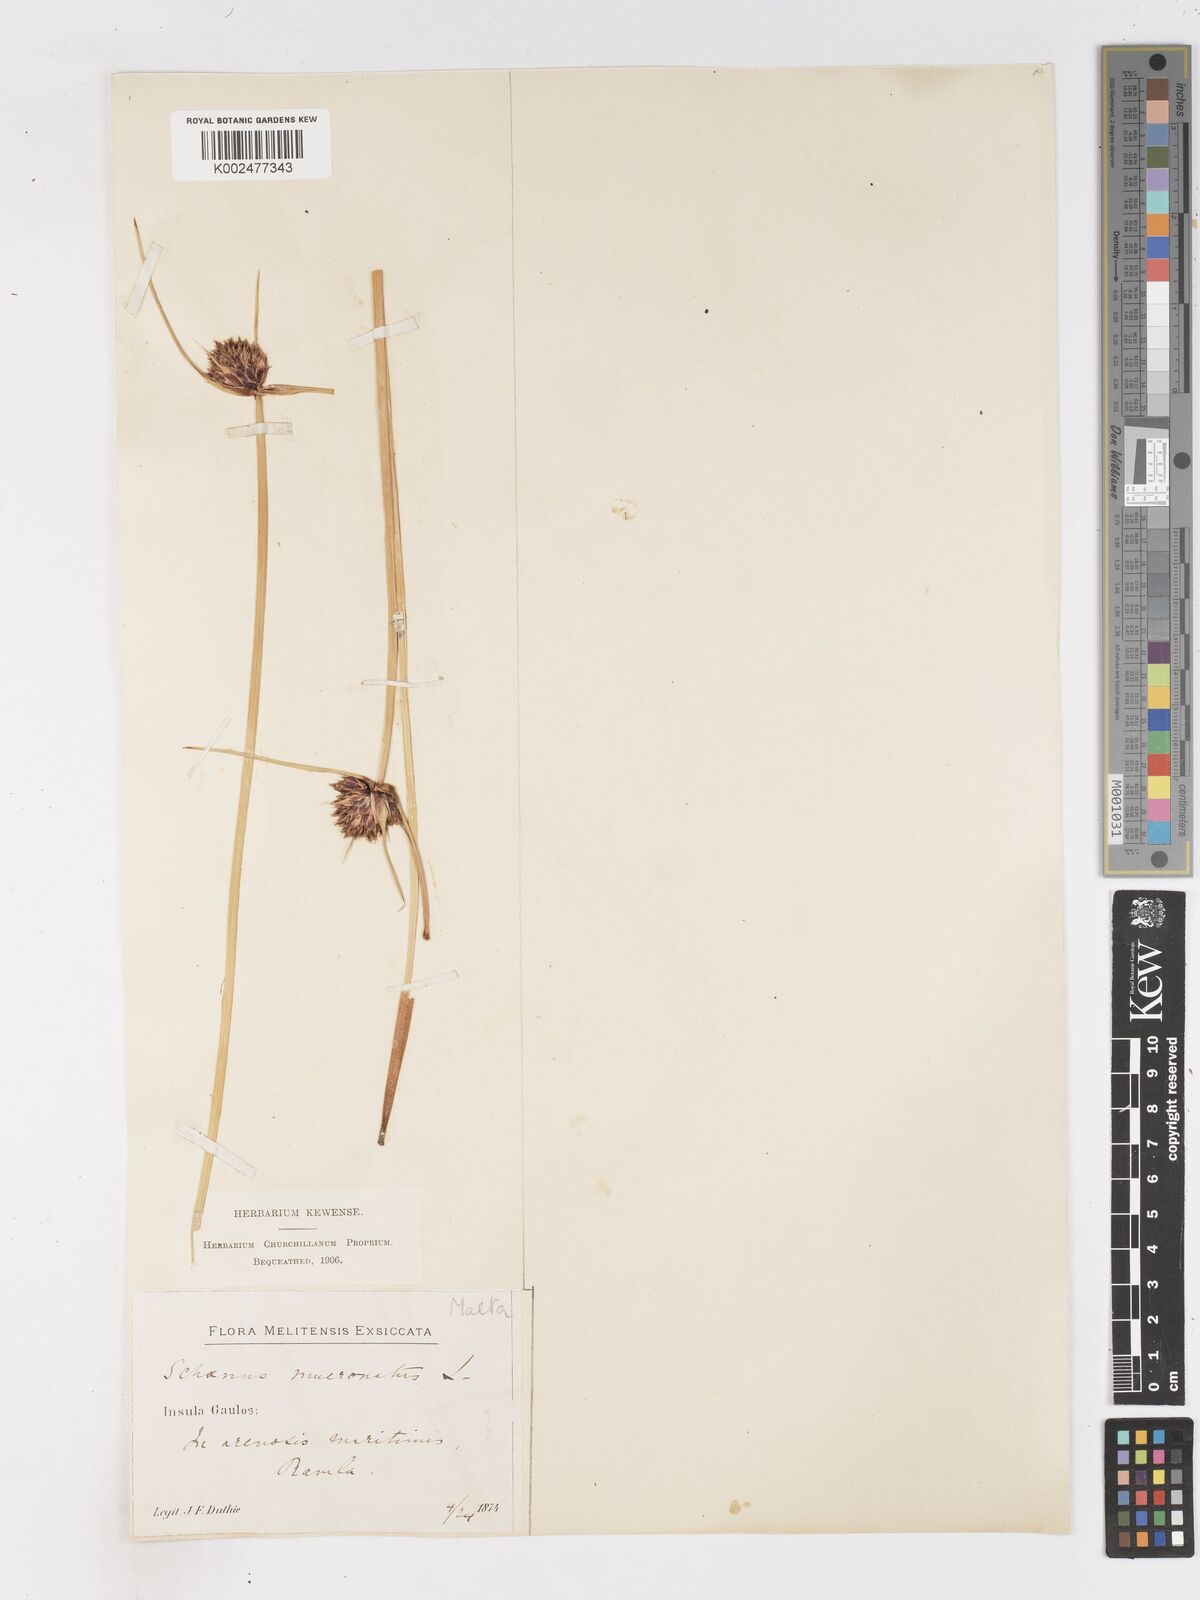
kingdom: Plantae
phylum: Tracheophyta
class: Liliopsida
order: Poales
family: Cyperaceae
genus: Cyperus
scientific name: Cyperus capitatus
